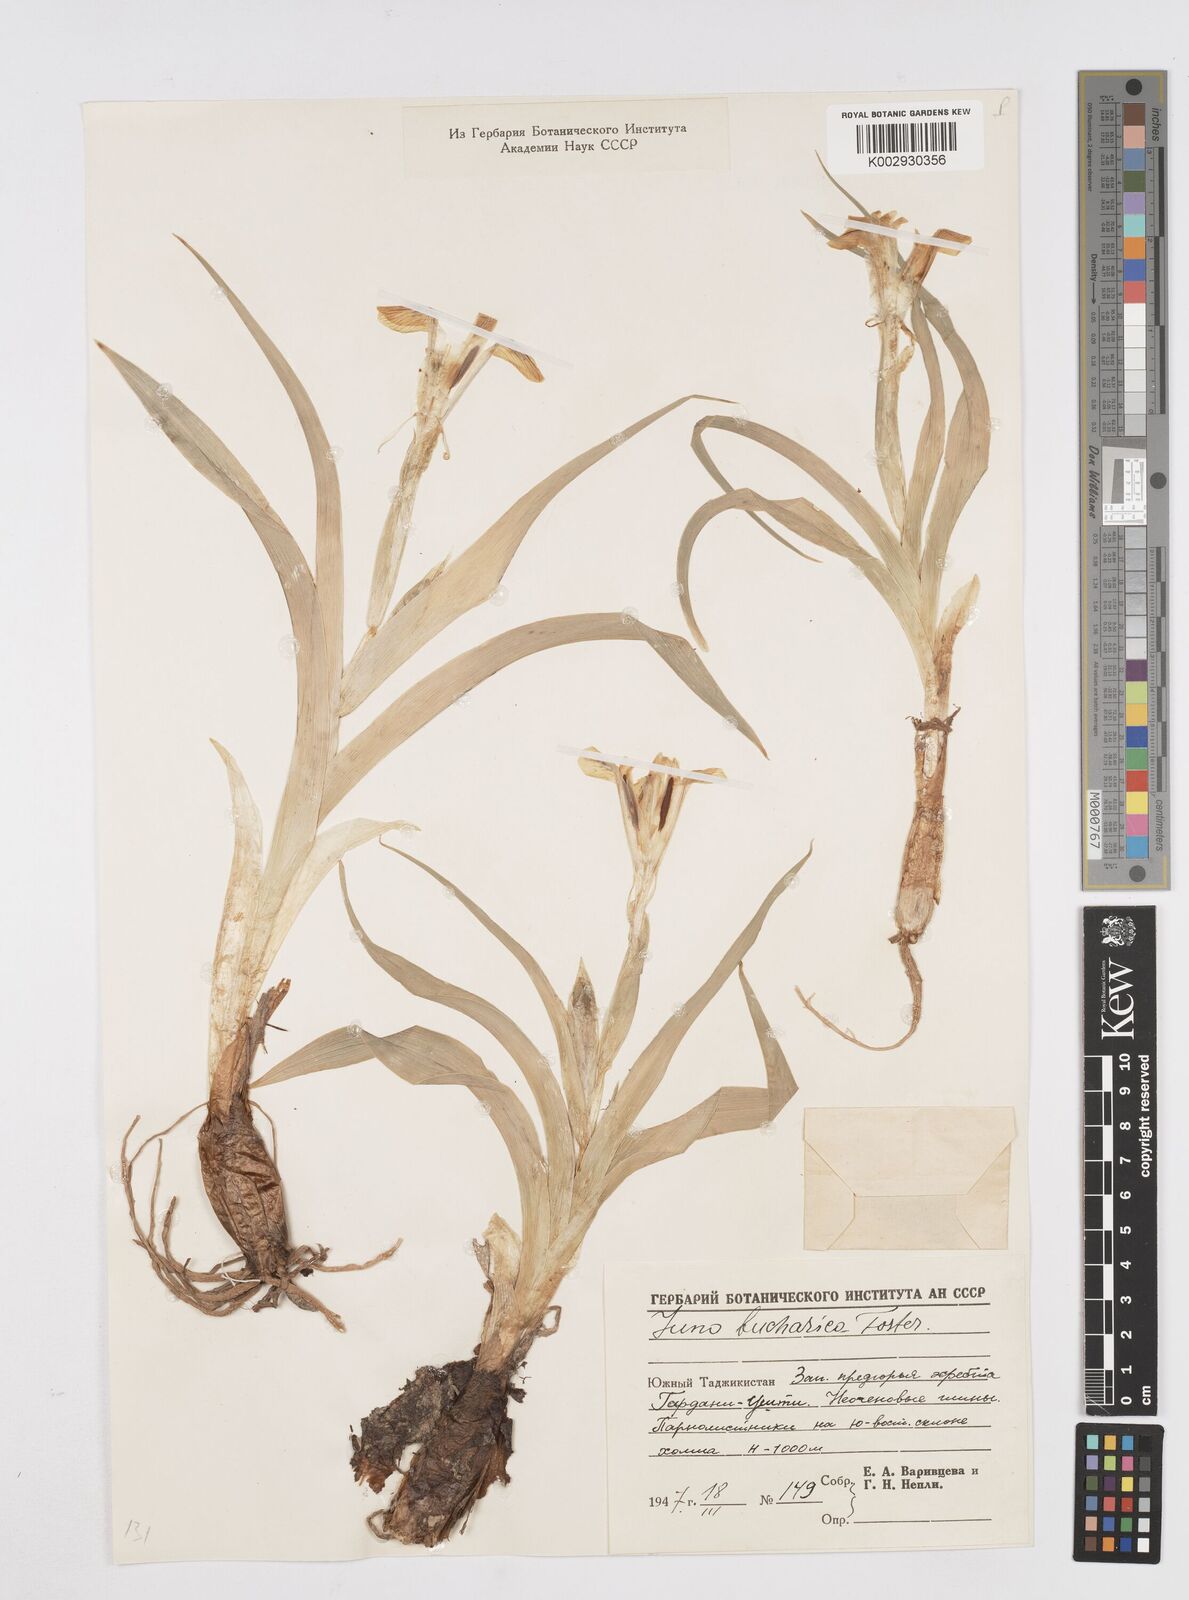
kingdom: Plantae
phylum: Tracheophyta
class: Liliopsida
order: Asparagales
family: Iridaceae
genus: Iris
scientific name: Iris bucharica
